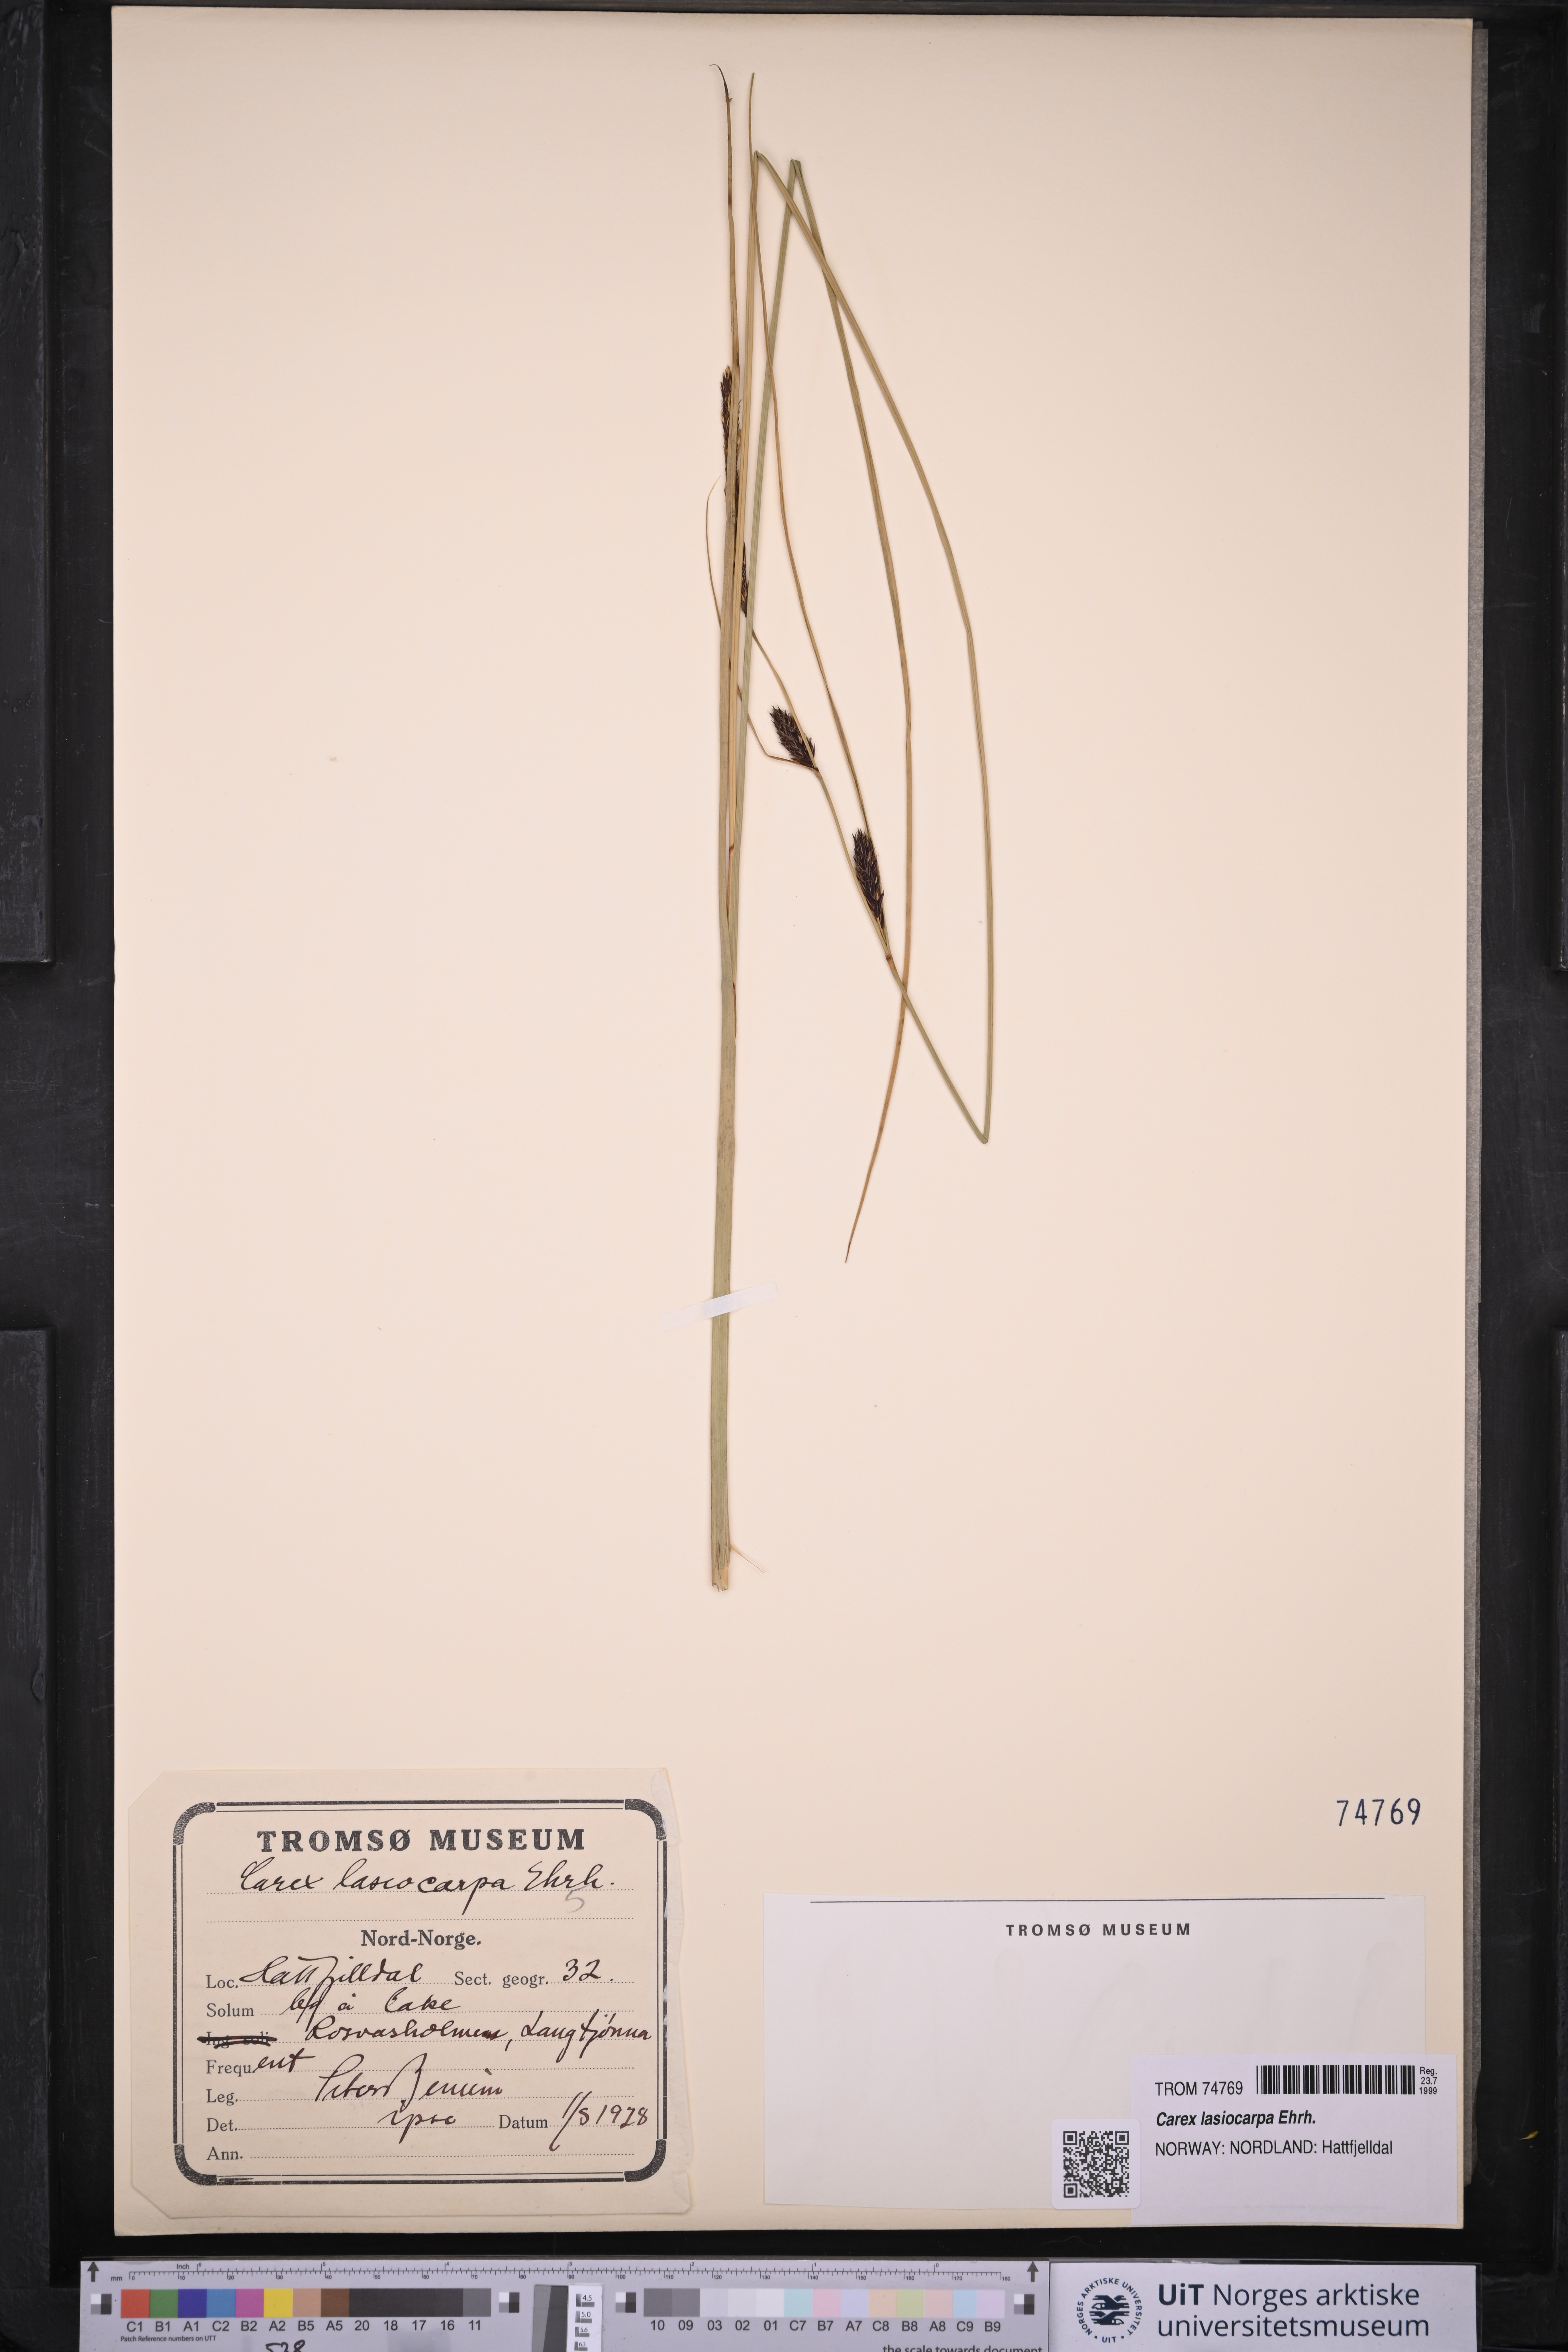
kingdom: Plantae
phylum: Tracheophyta
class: Liliopsida
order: Poales
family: Cyperaceae
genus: Carex
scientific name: Carex lasiocarpa
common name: Slender sedge
